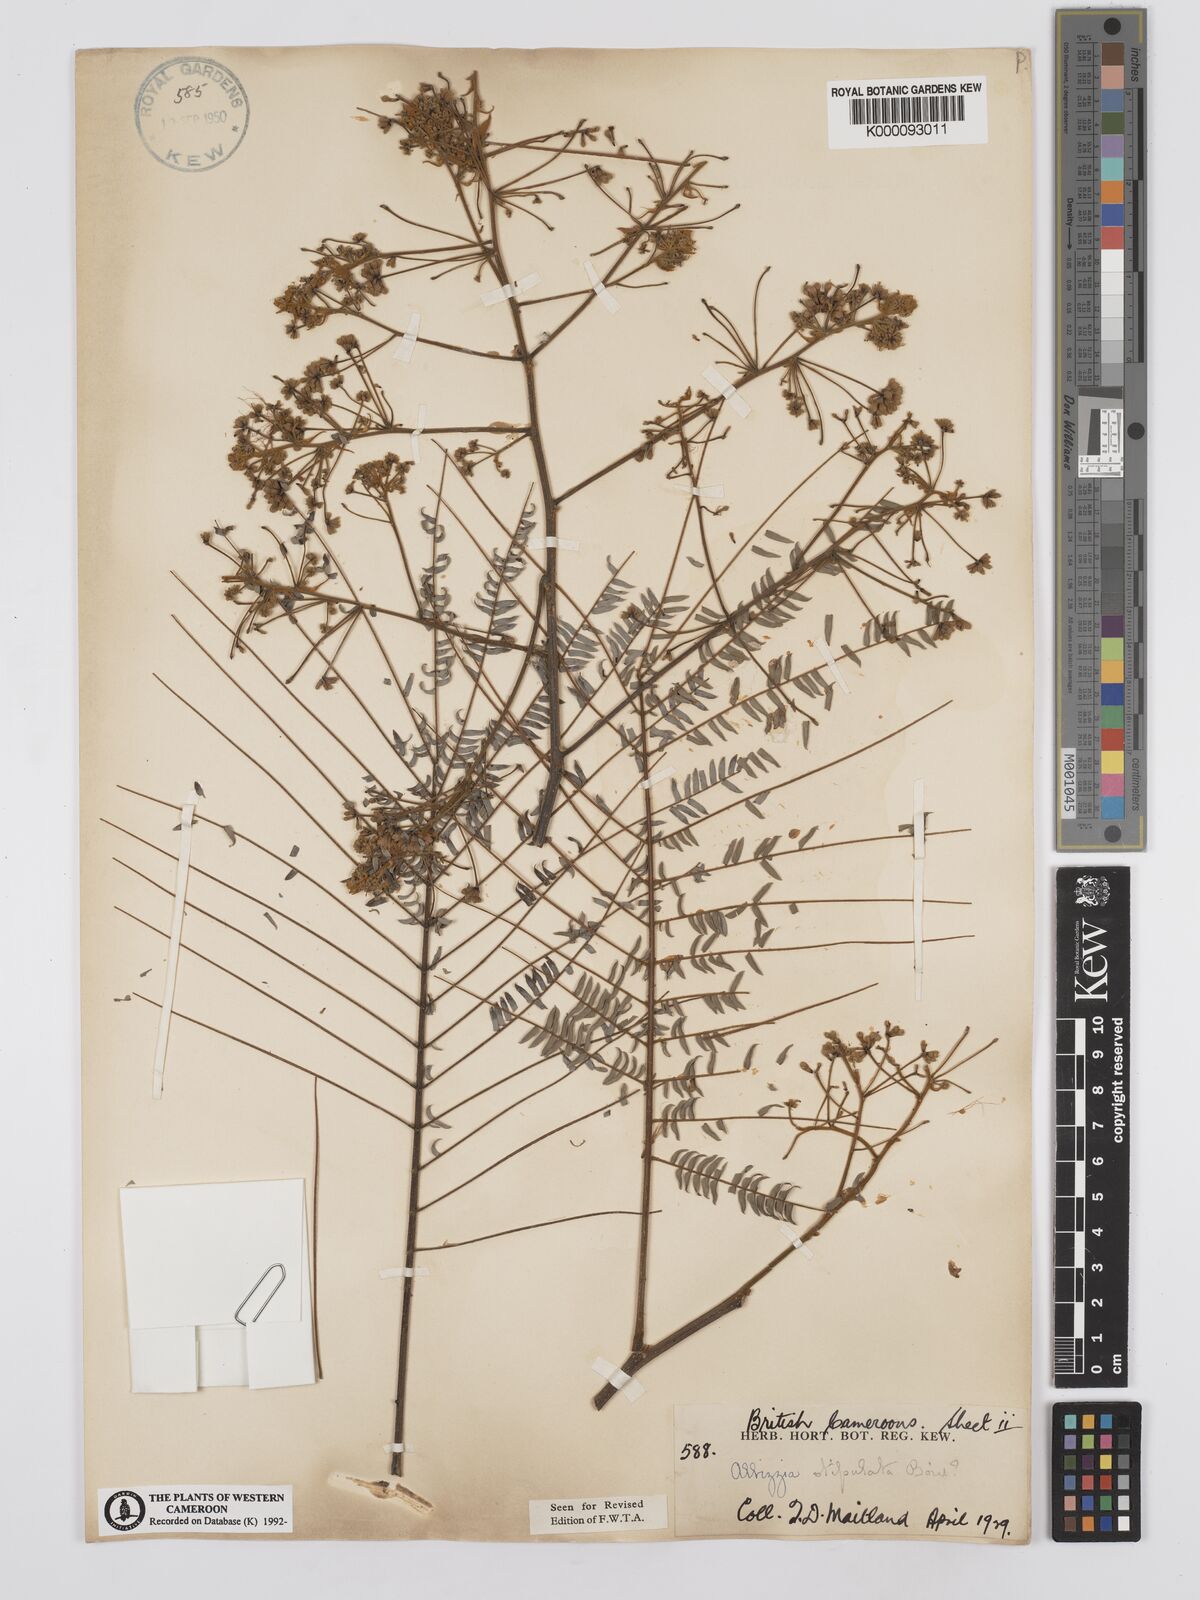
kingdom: Plantae
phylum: Tracheophyta
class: Magnoliopsida
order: Fabales
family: Fabaceae
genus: Albizia
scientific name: Albizia
